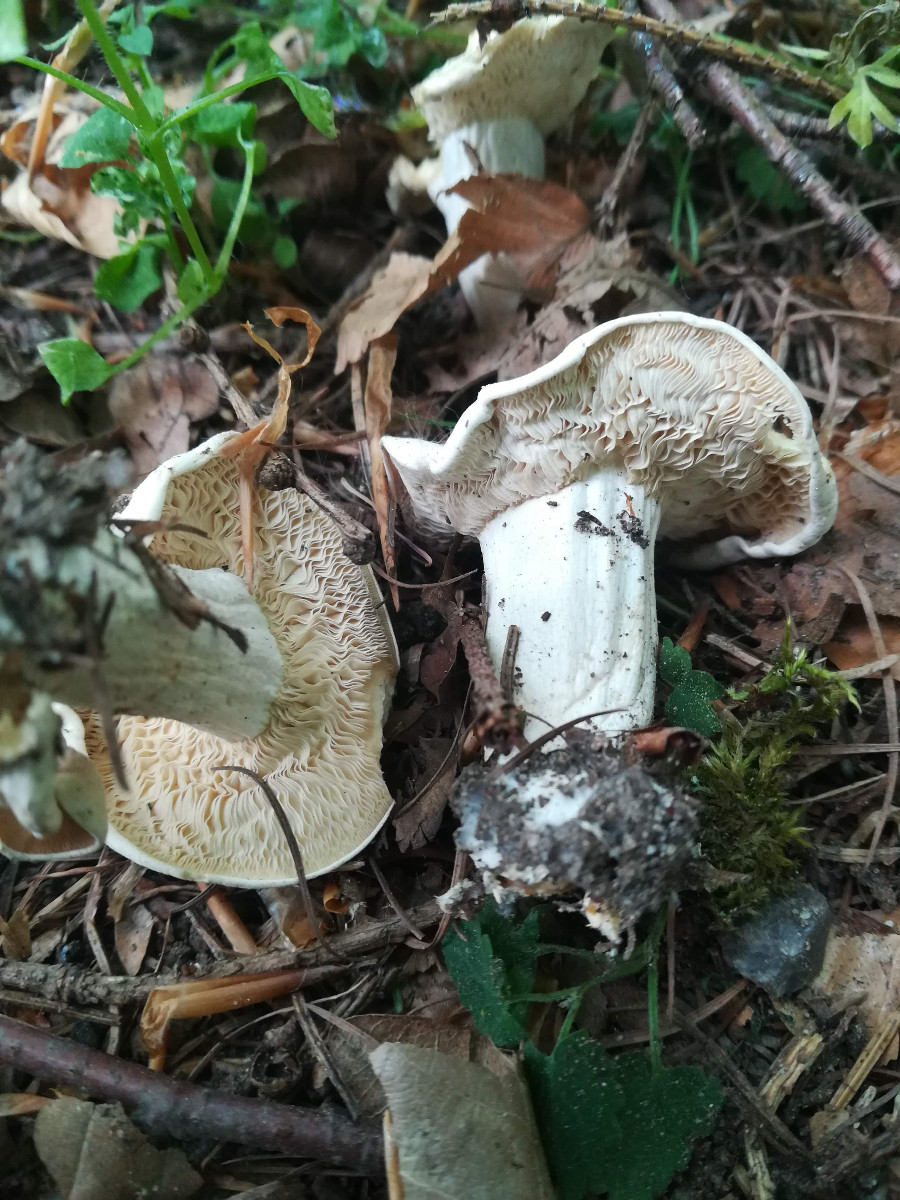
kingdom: Fungi
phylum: Basidiomycota
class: Agaricomycetes
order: Agaricales
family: Lyophyllaceae
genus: Calocybe
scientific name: Calocybe gambosa
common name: vårmusseron
